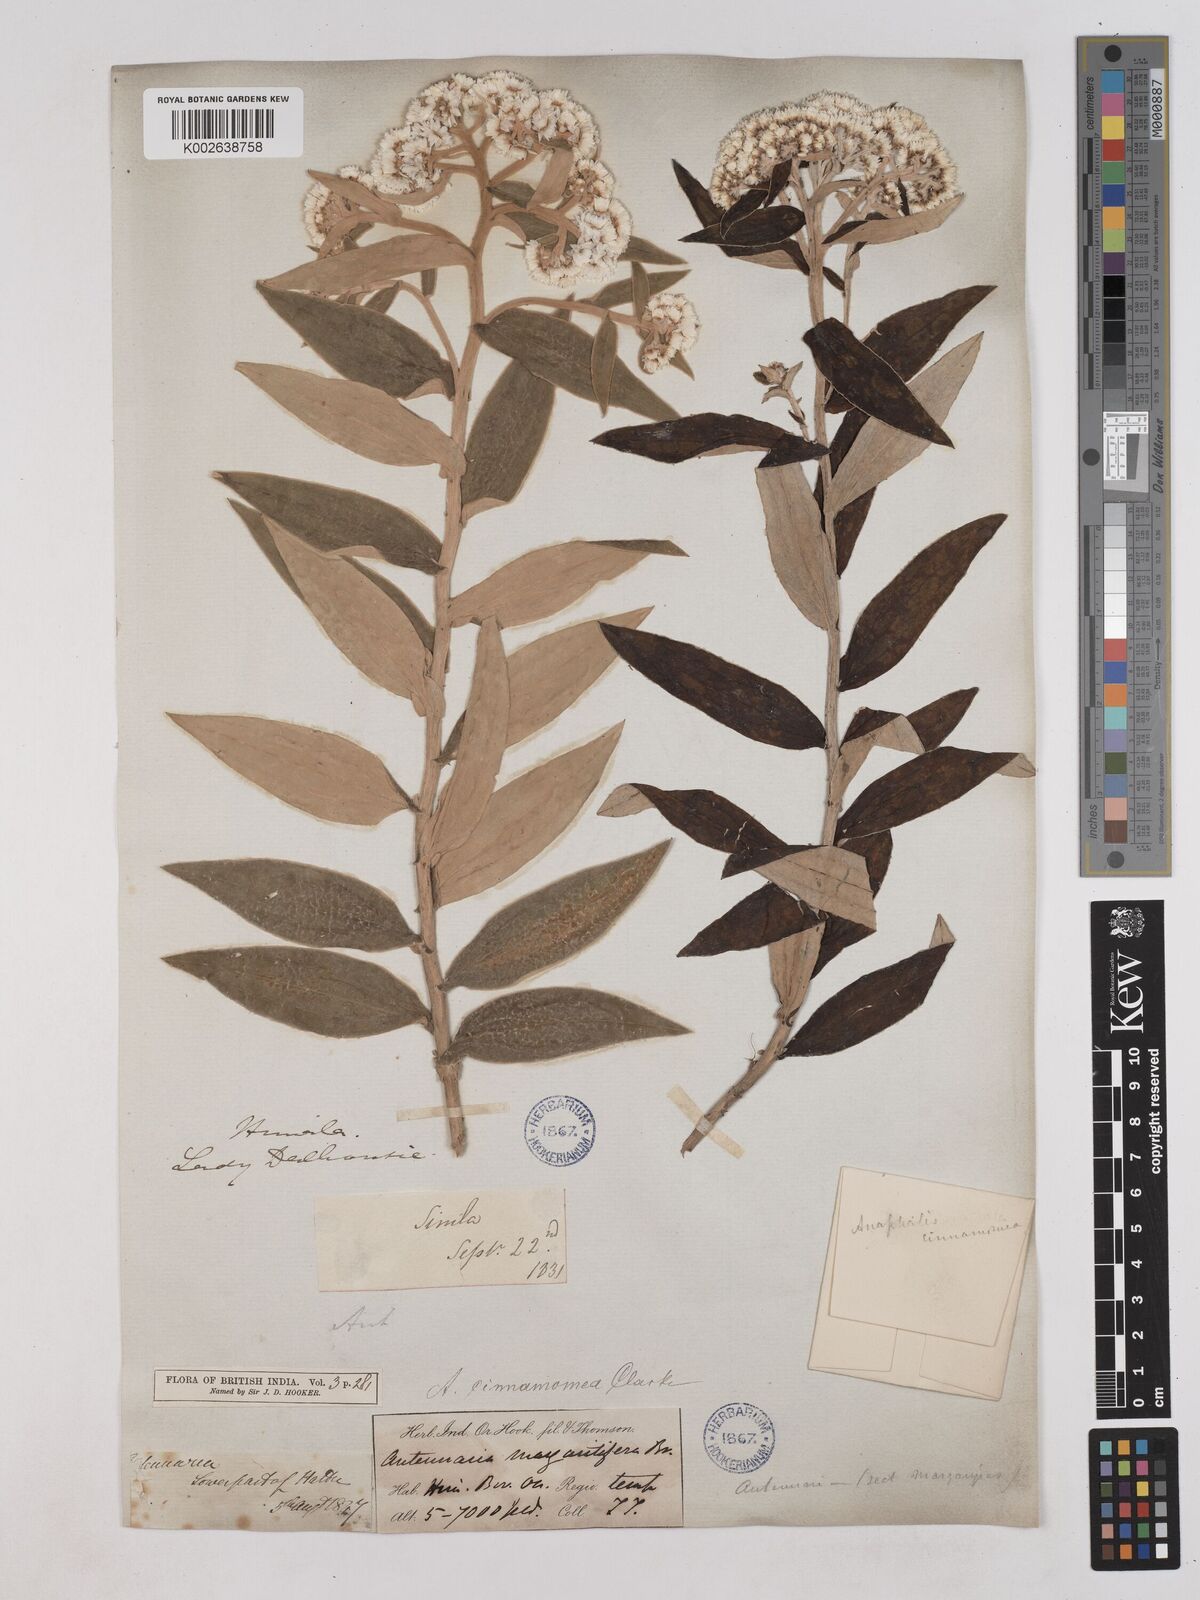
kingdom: Plantae
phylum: Tracheophyta
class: Magnoliopsida
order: Asterales
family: Asteraceae
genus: Anaphalis
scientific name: Anaphalis marcescens
